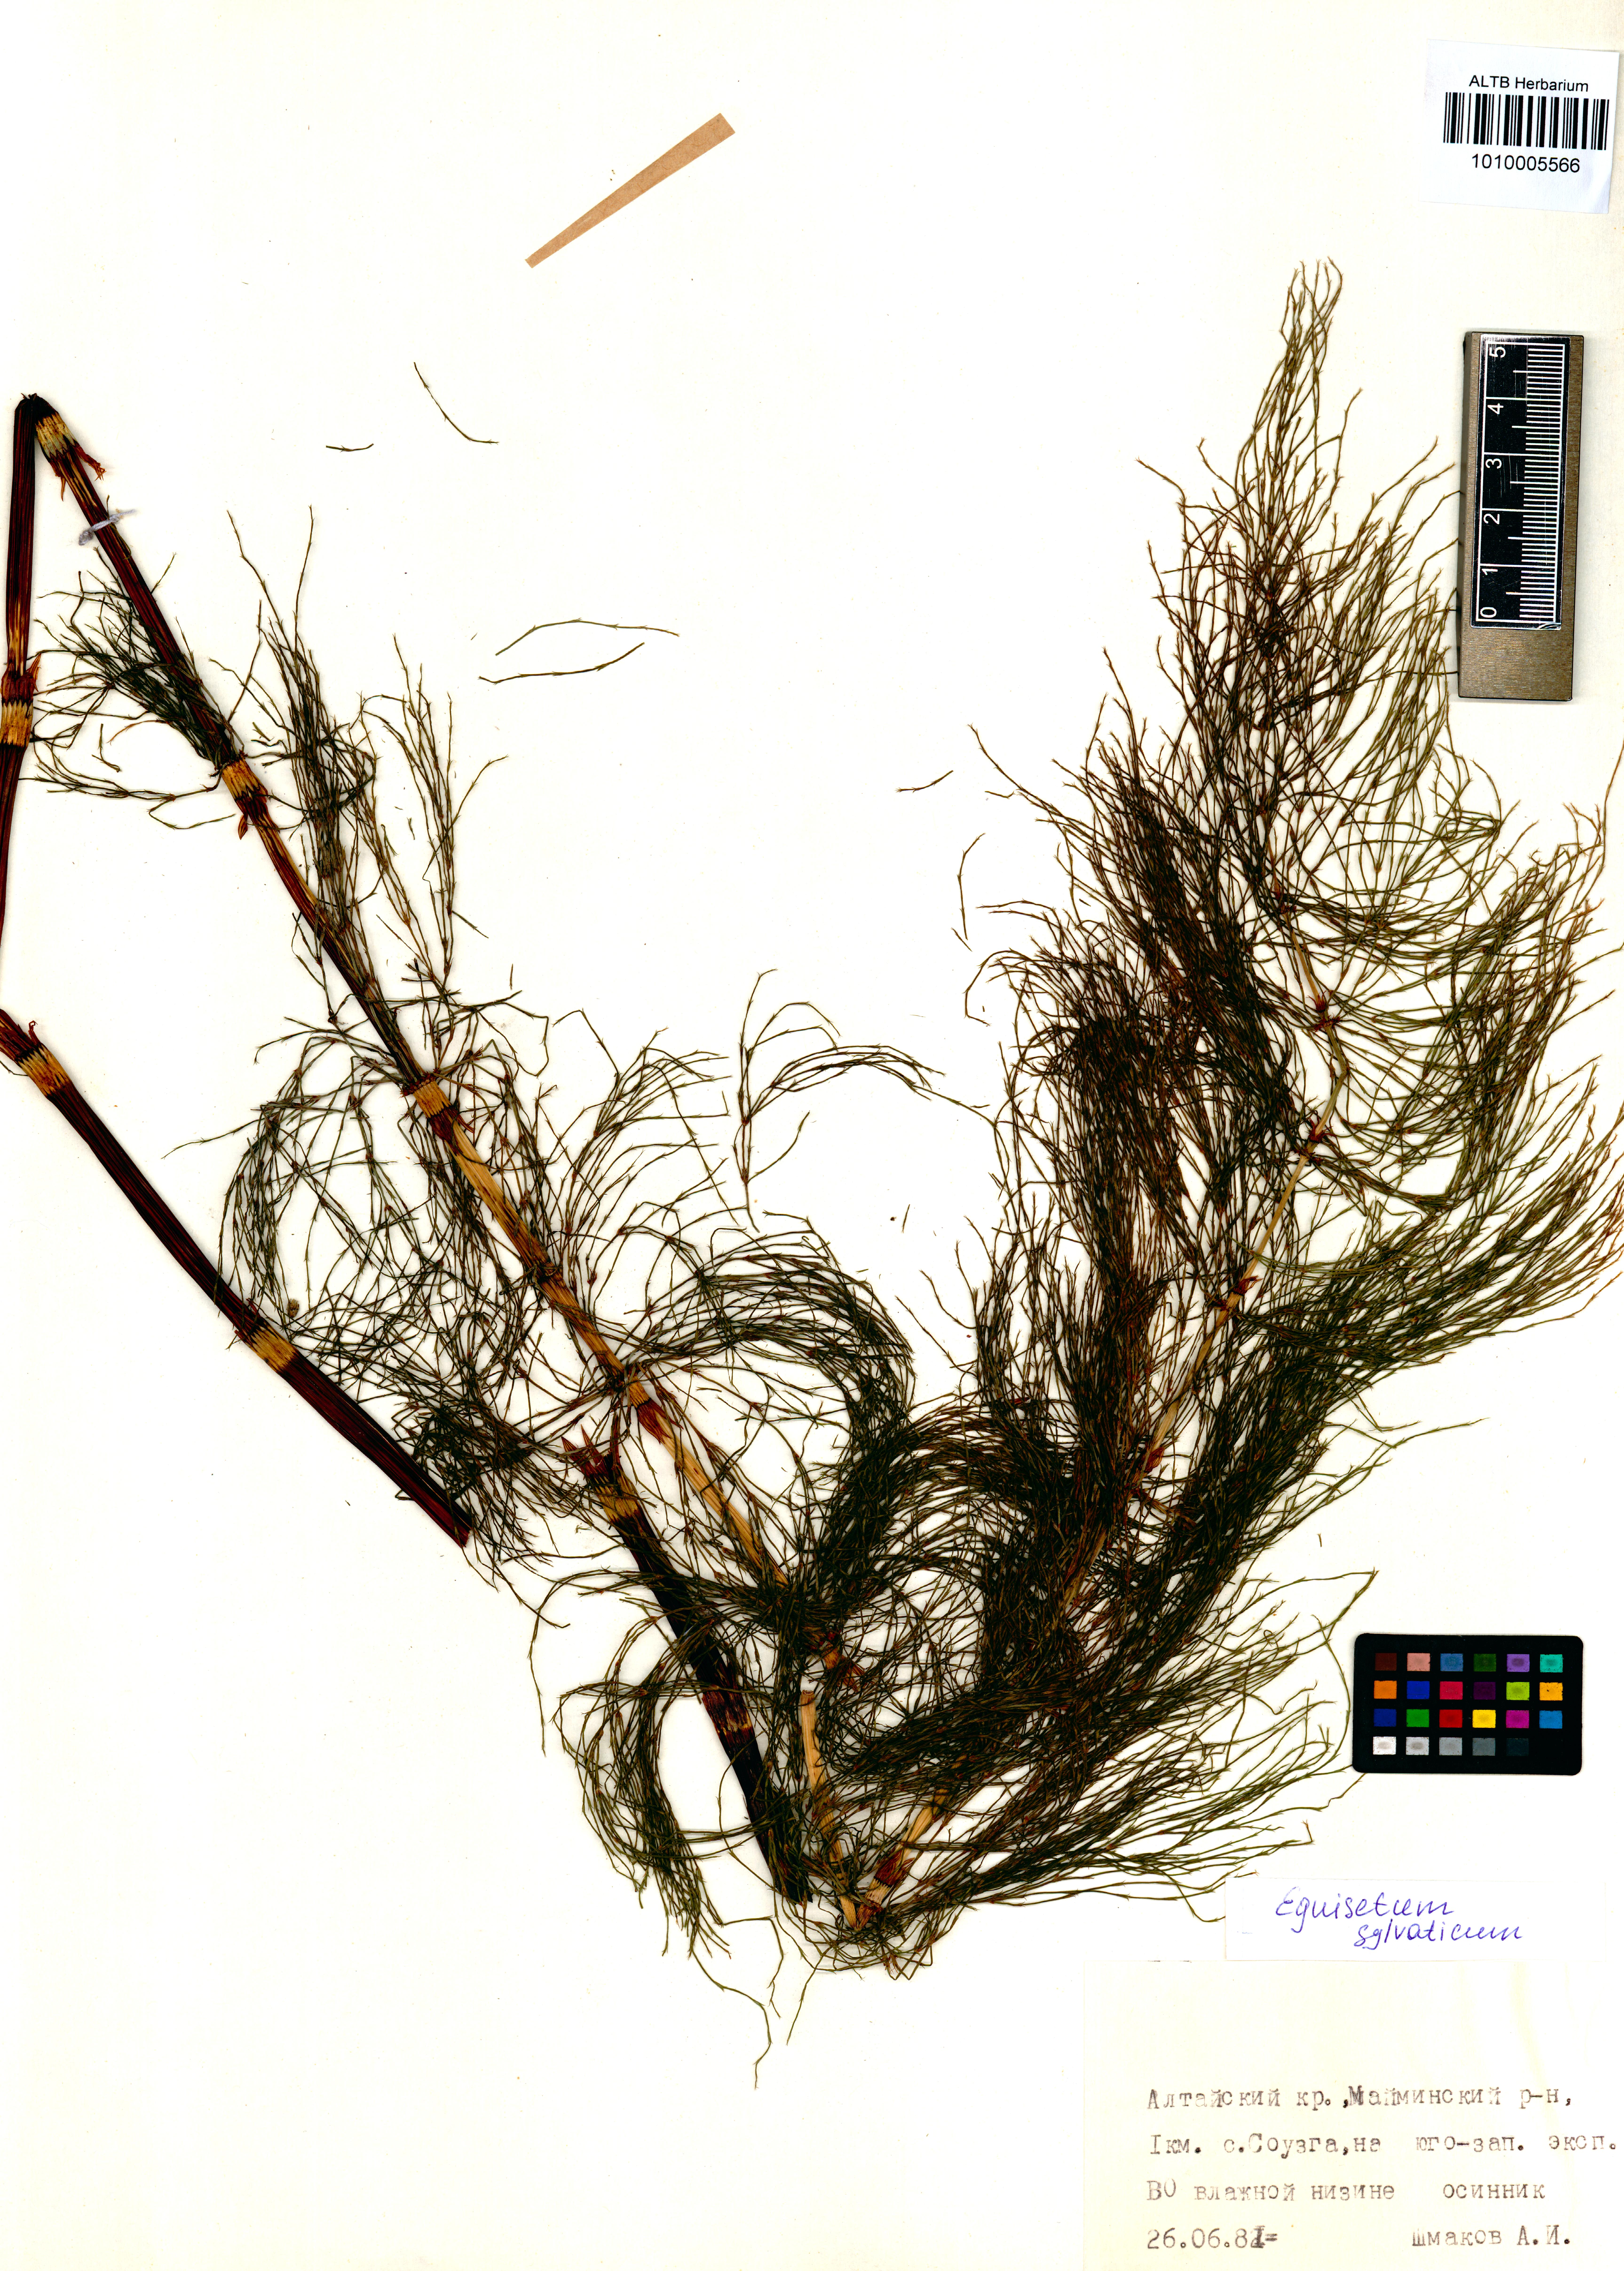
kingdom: Plantae
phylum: Tracheophyta
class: Polypodiopsida
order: Equisetales
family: Equisetaceae
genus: Equisetum
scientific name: Equisetum sylvaticum
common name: Wood horsetail
